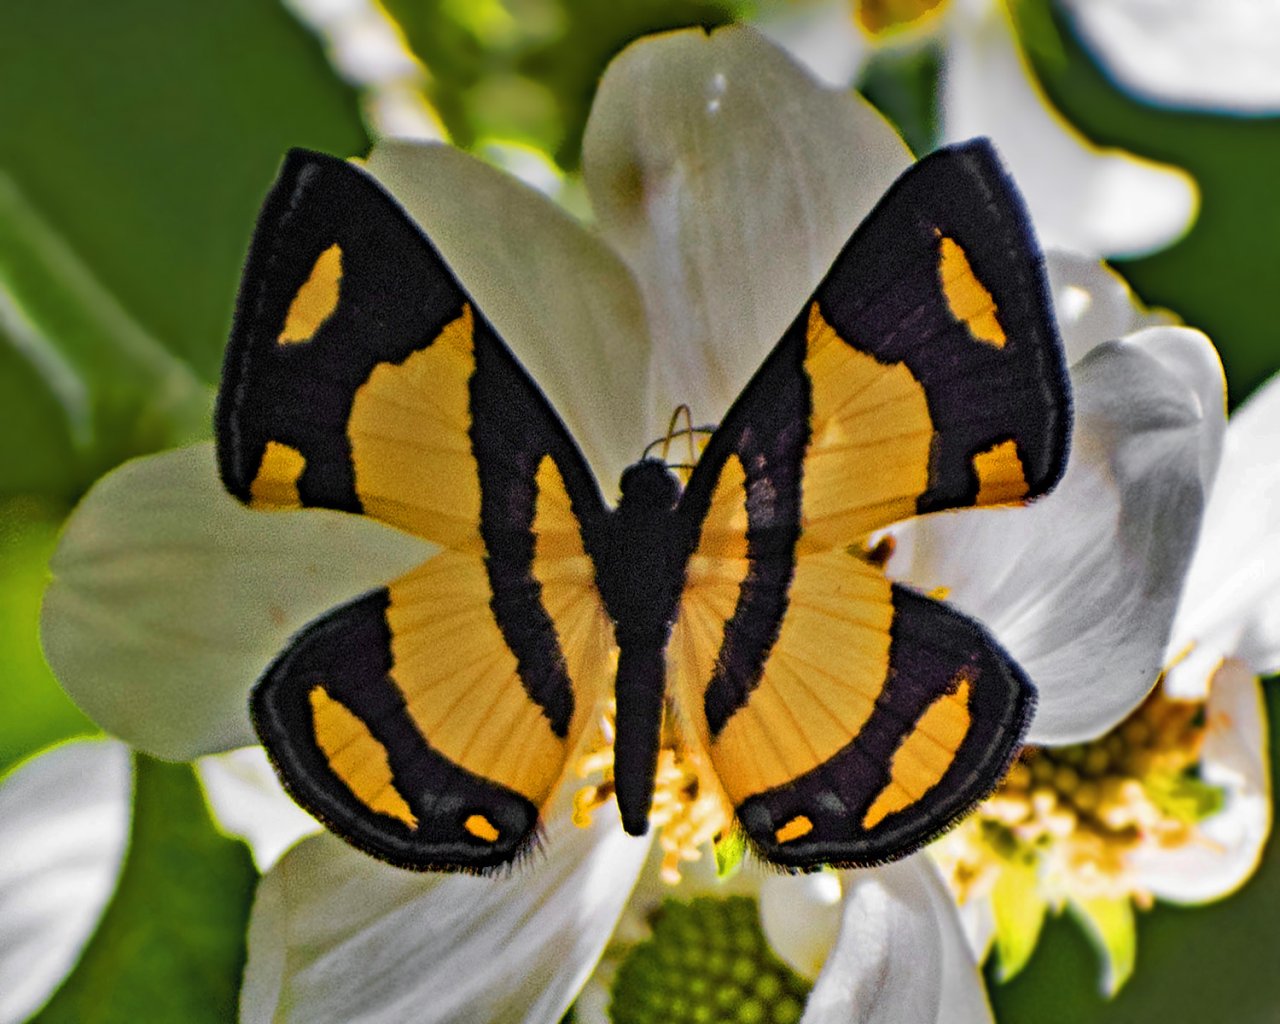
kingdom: Animalia
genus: Baeotis
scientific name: Baeotis zonata
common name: Bumblebee Metalmark
